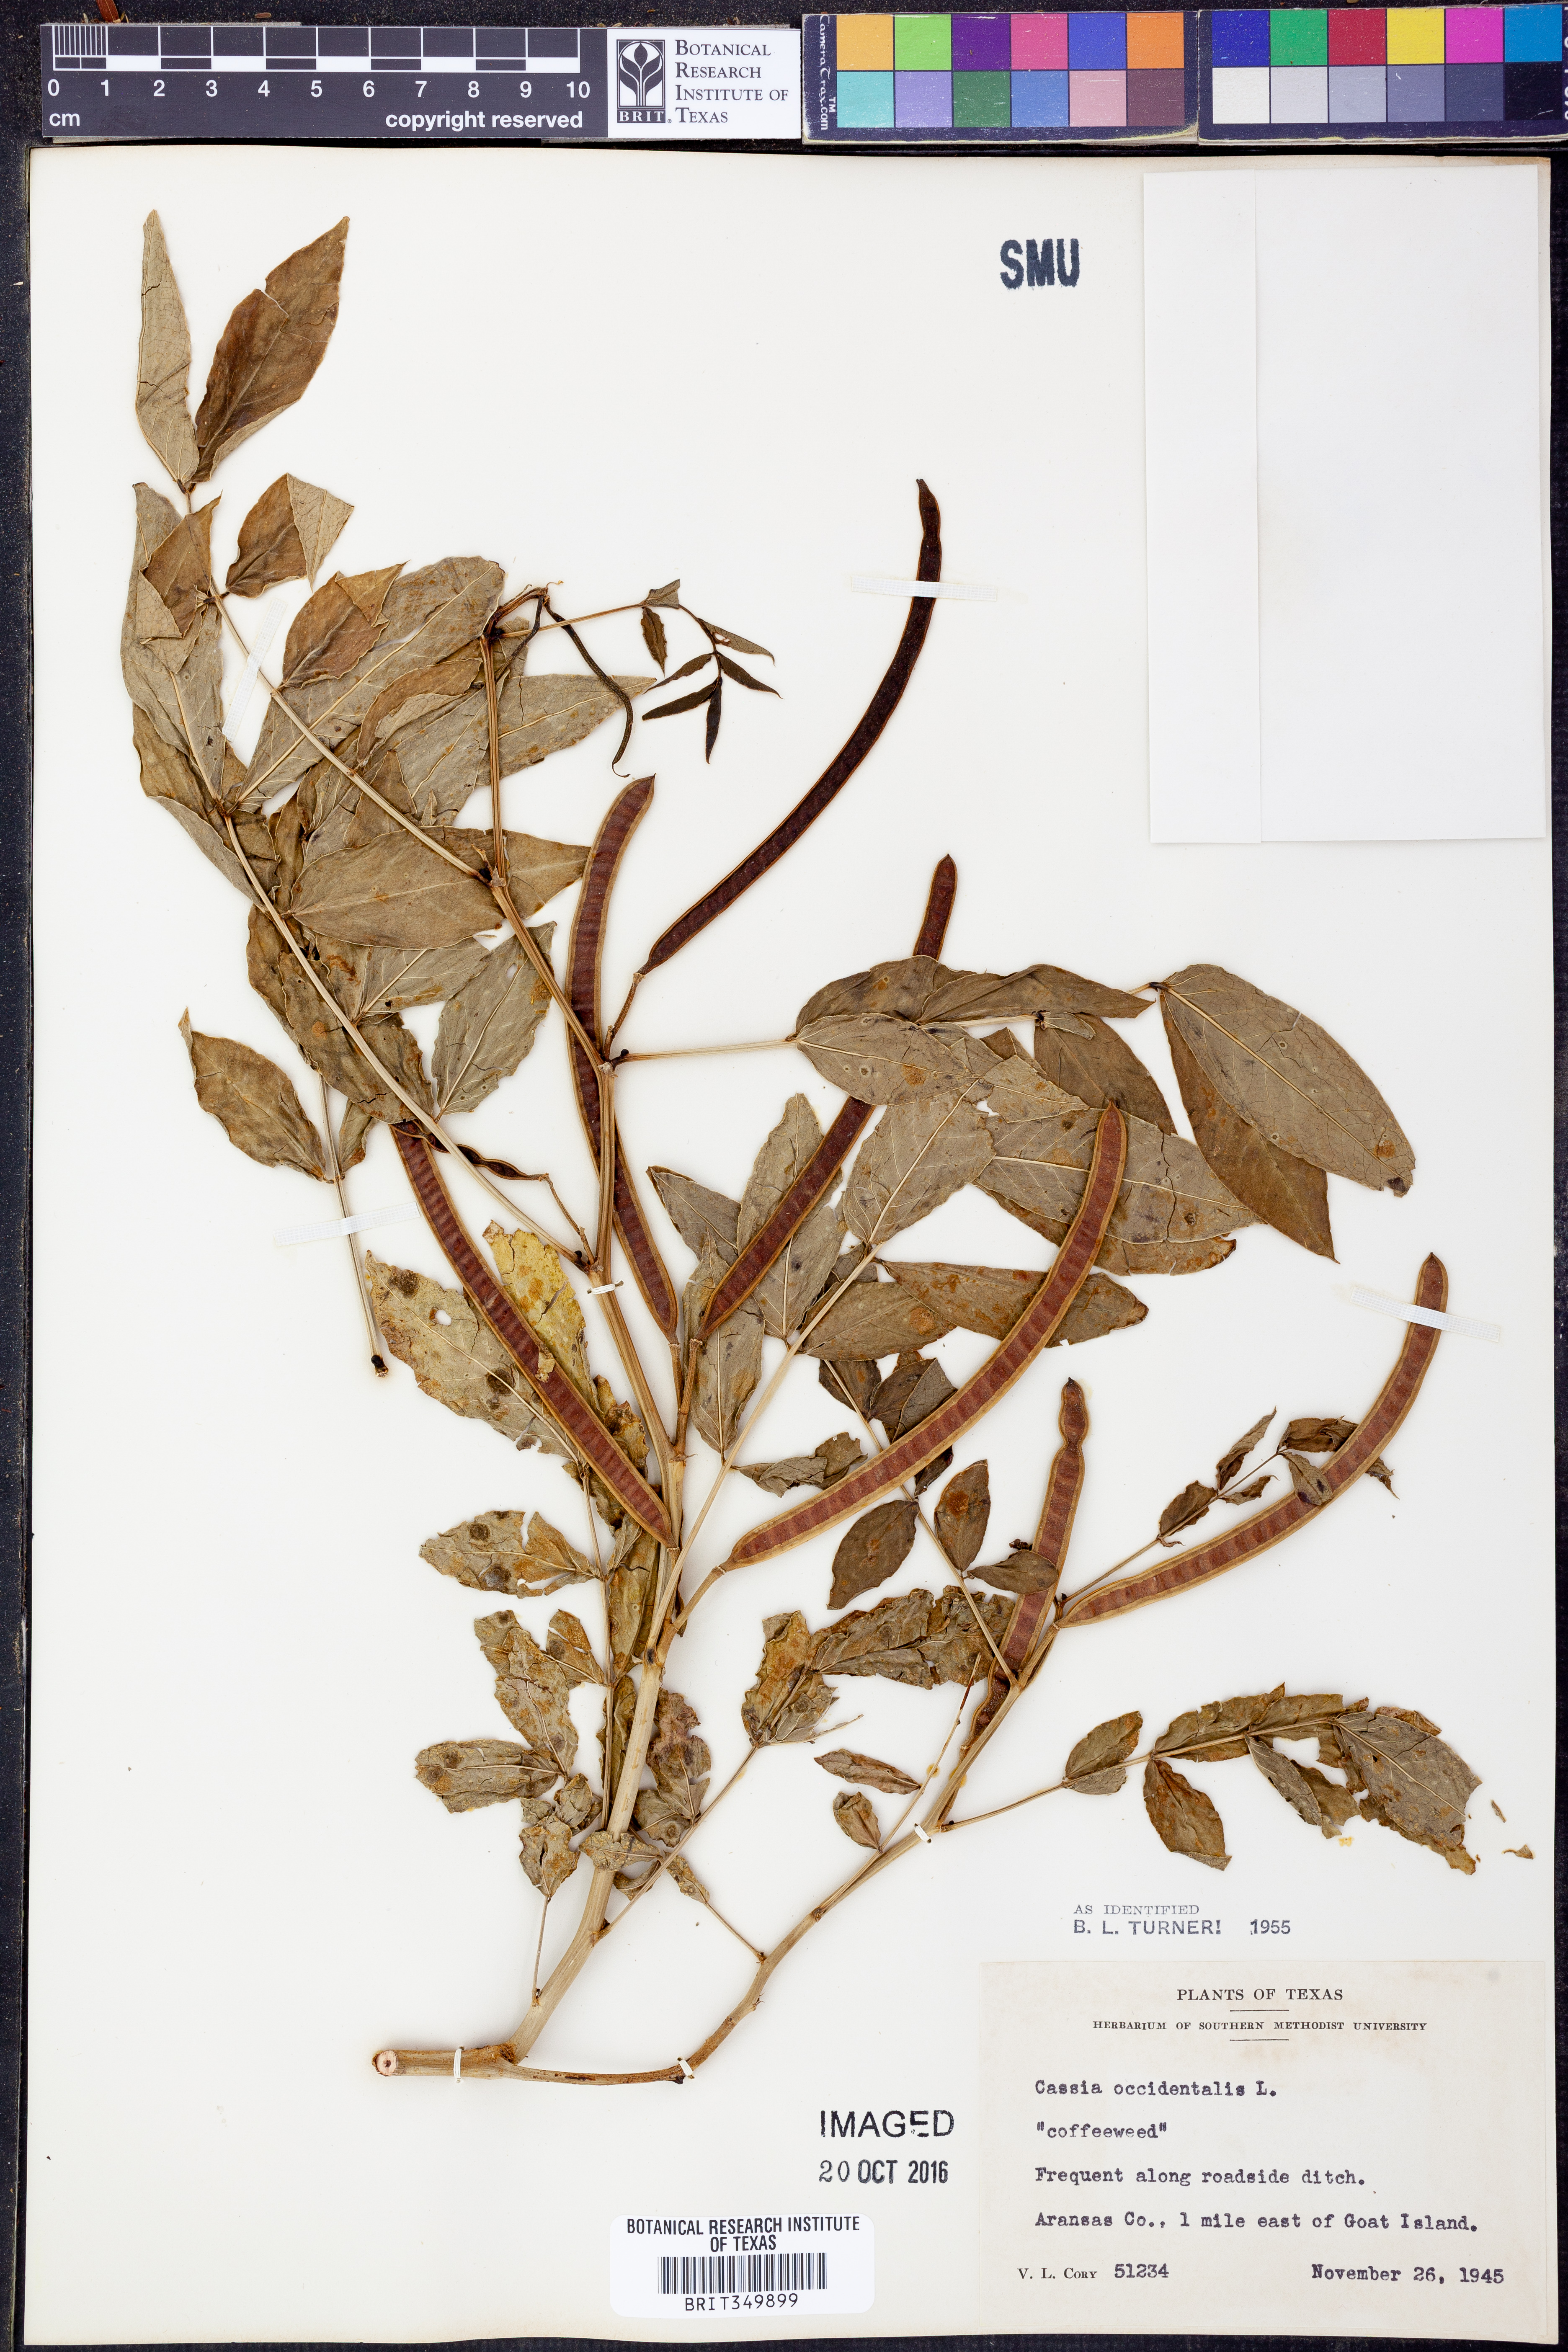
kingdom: Plantae
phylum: Tracheophyta
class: Magnoliopsida
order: Fabales
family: Fabaceae
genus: Senna
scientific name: Senna occidentalis
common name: Septicweed
